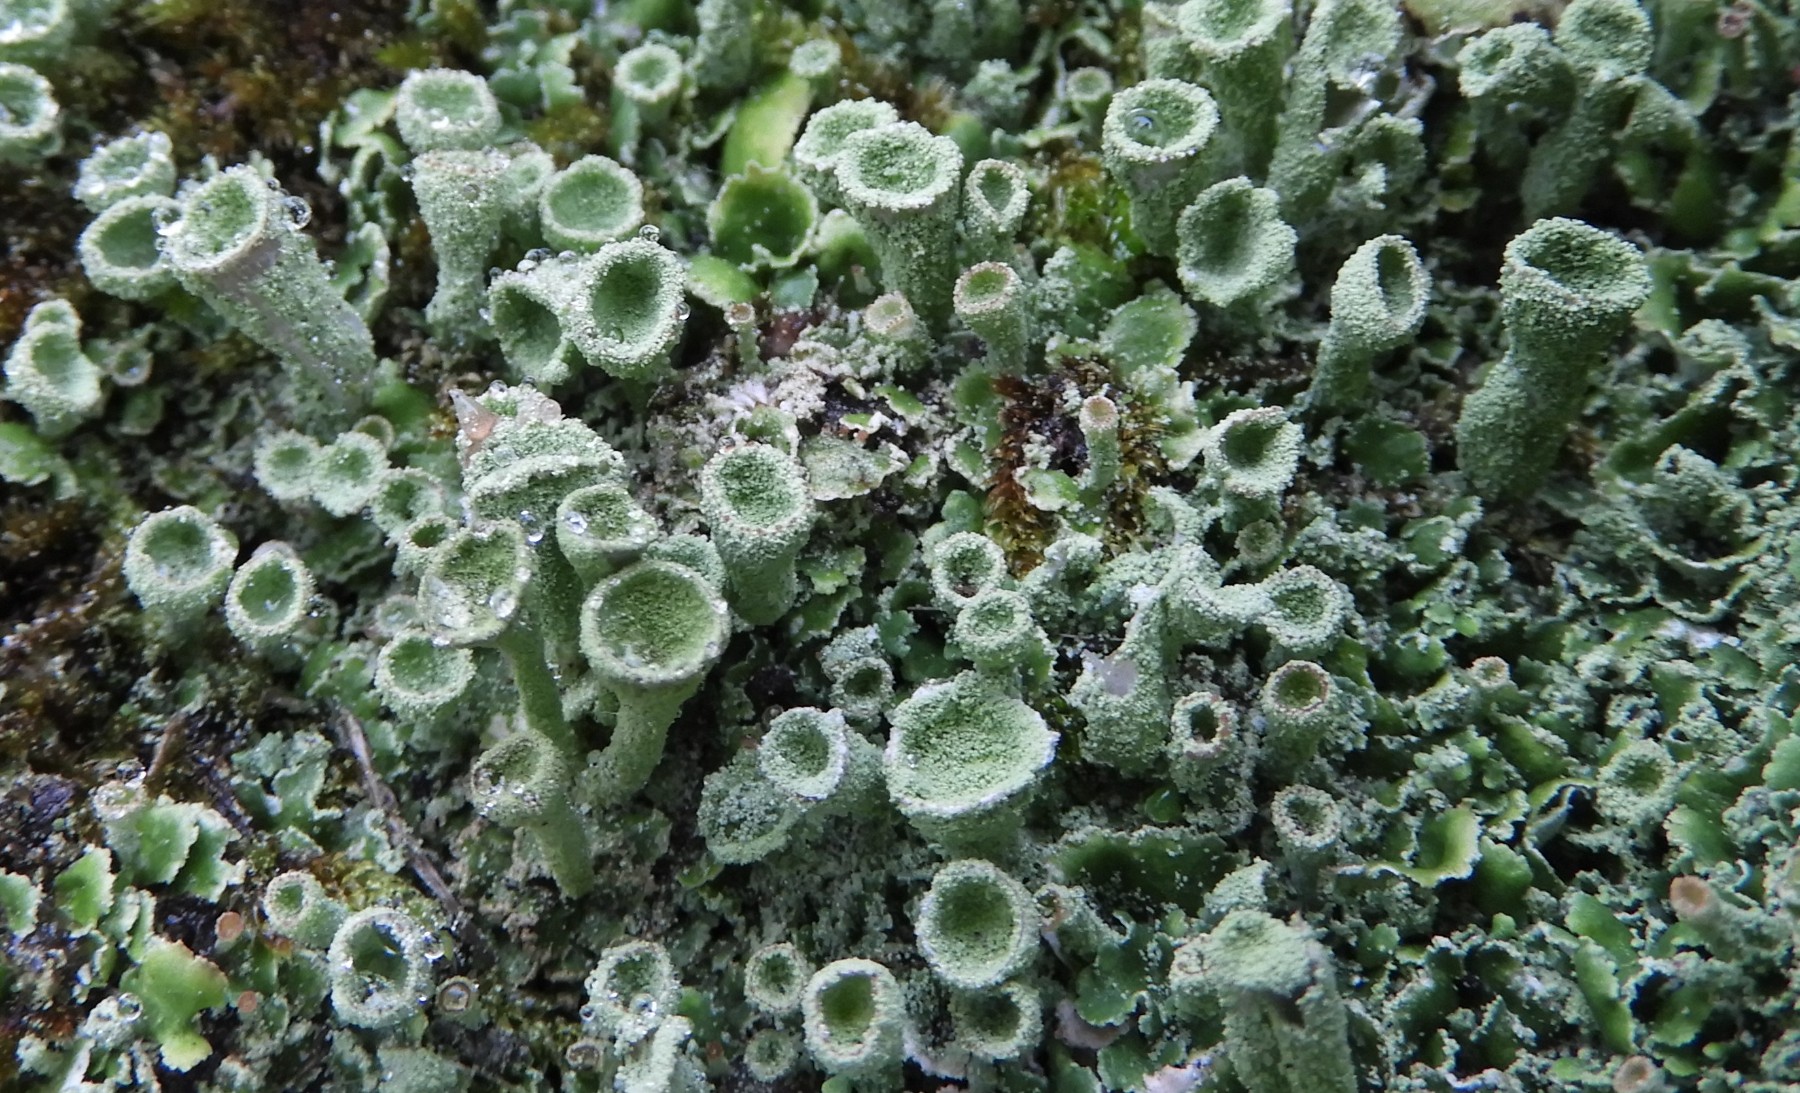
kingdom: Fungi
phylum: Ascomycota
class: Lecanoromycetes
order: Lecanorales
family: Cladoniaceae
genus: Cladonia
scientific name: Cladonia humilis
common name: lav bægerlav
